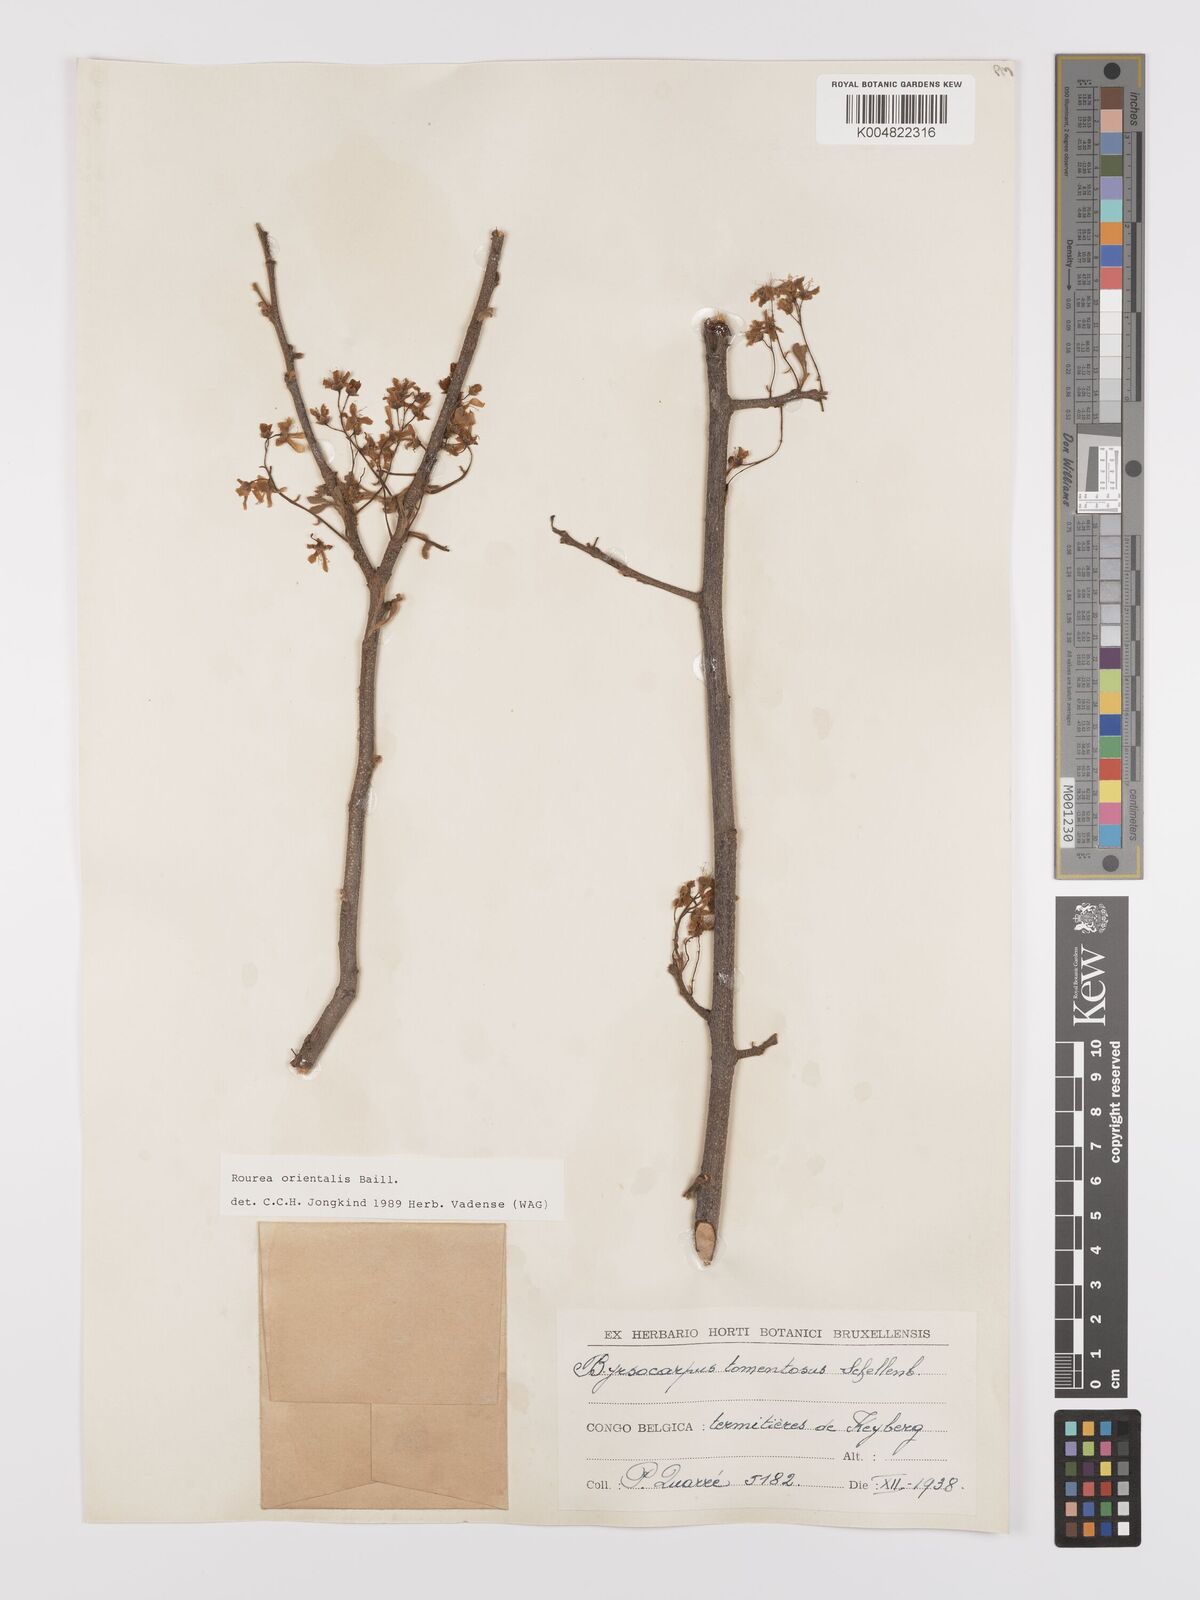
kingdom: Plantae
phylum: Tracheophyta
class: Magnoliopsida
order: Oxalidales
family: Connaraceae
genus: Rourea
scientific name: Rourea orientalis
